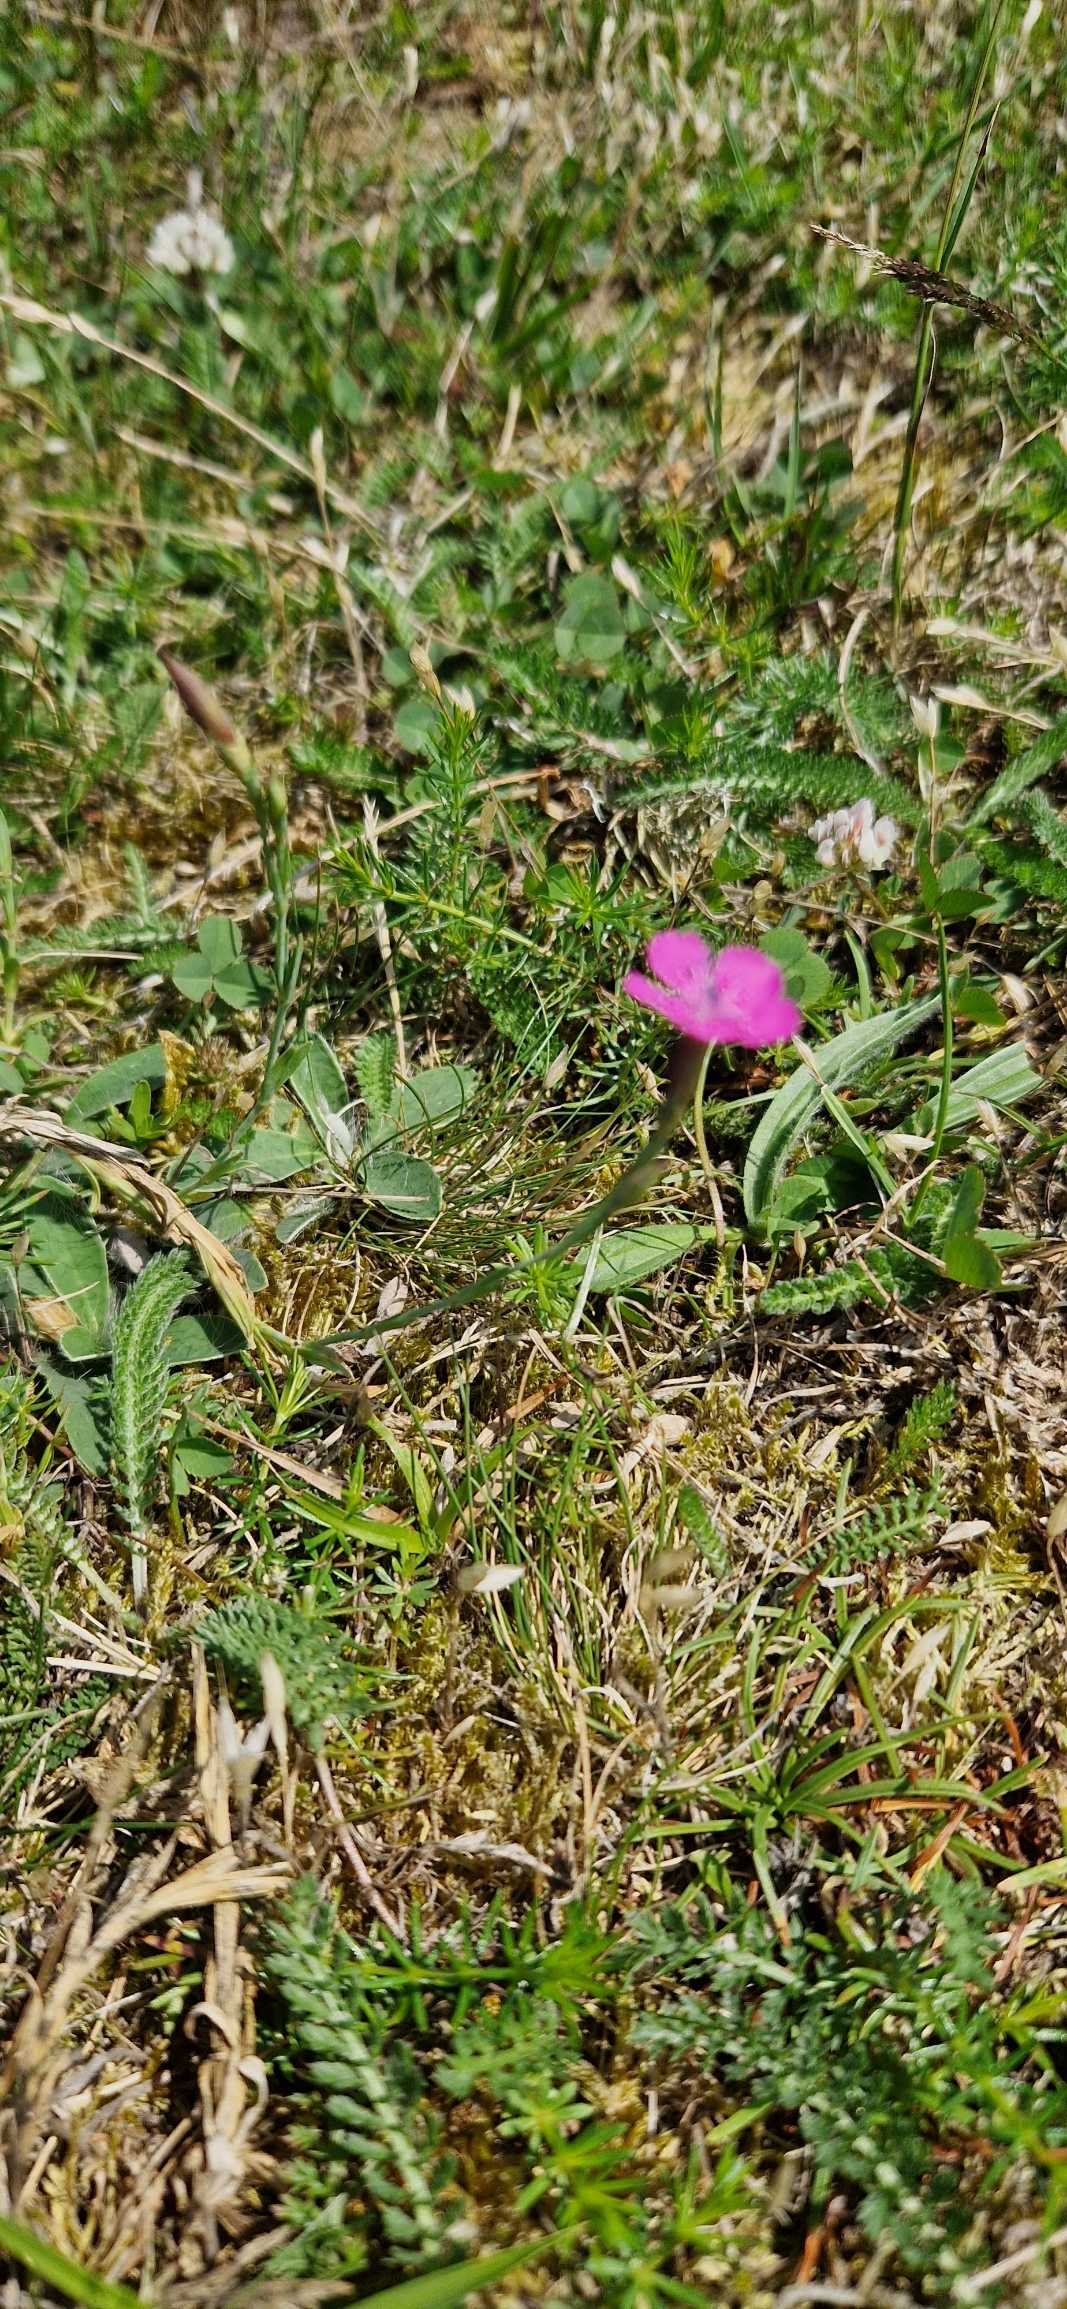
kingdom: Plantae
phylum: Tracheophyta
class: Magnoliopsida
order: Caryophyllales
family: Caryophyllaceae
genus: Dianthus
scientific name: Dianthus deltoides
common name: Bakke-nellike
